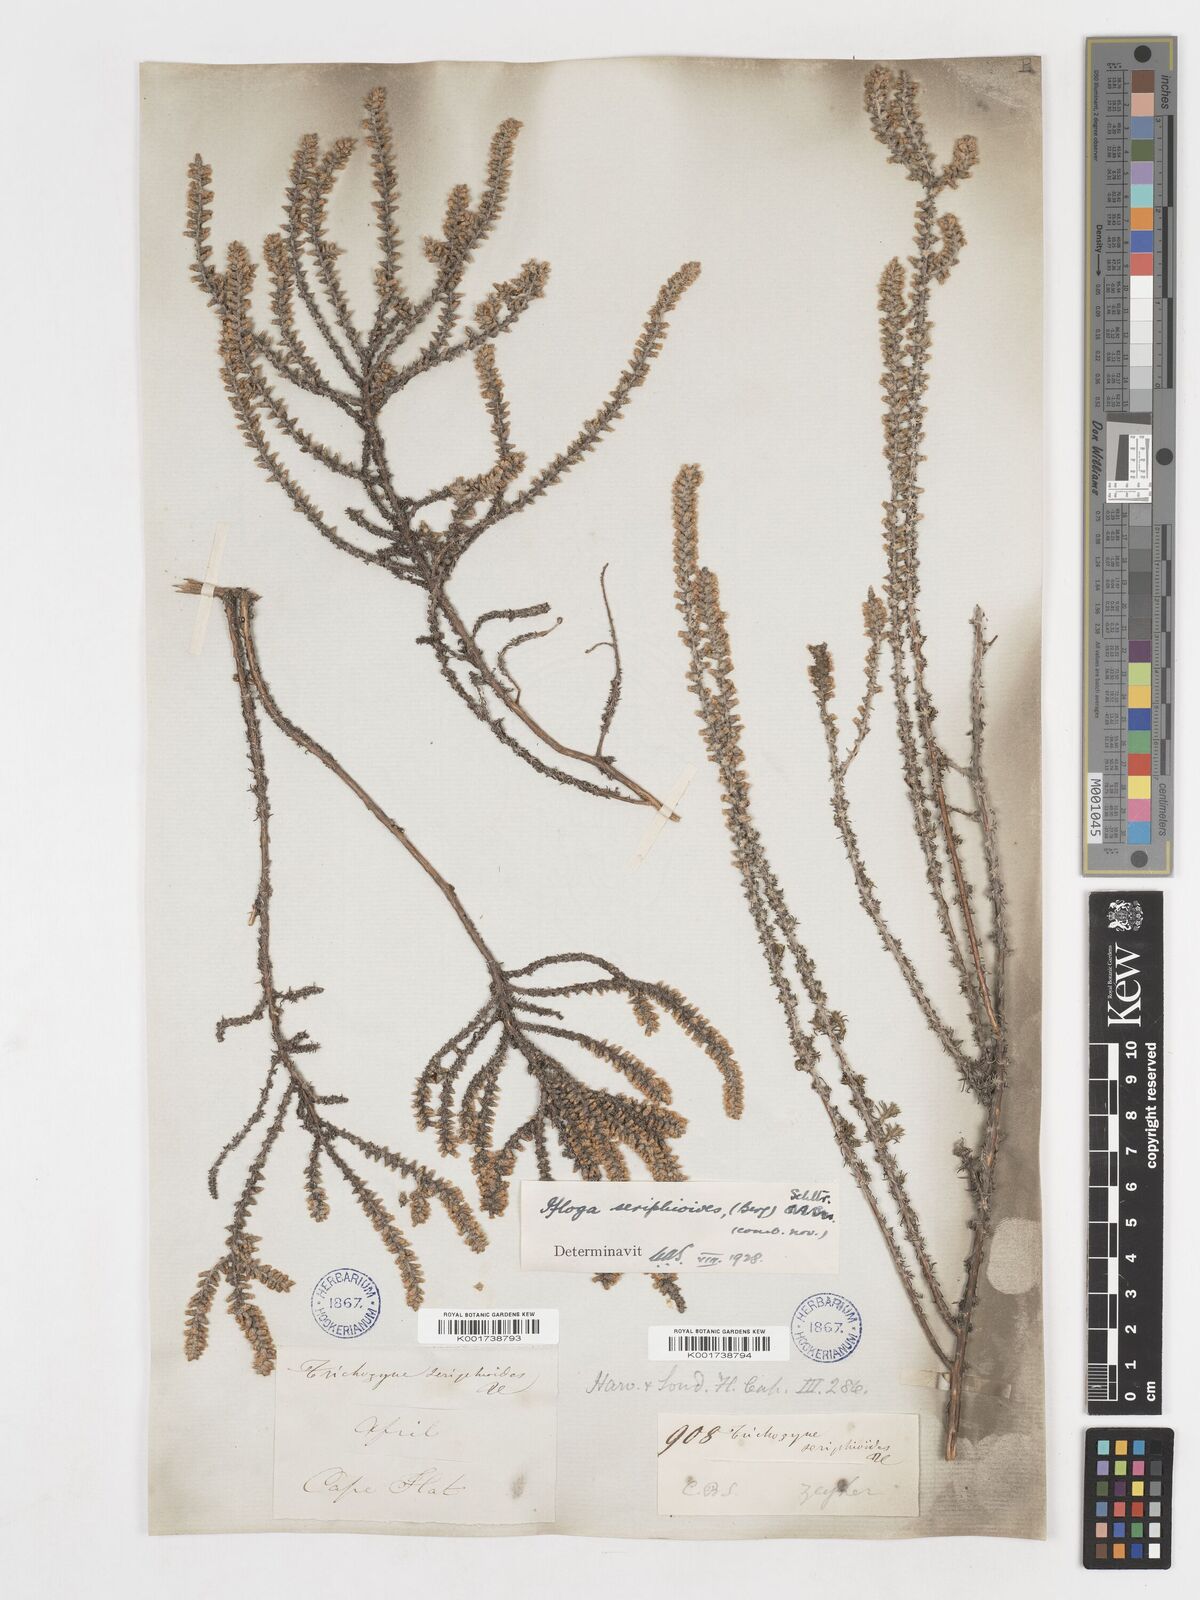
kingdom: Plantae
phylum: Tracheophyta
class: Magnoliopsida
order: Asterales
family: Asteraceae
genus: Ifloga
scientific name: Ifloga ambigua
